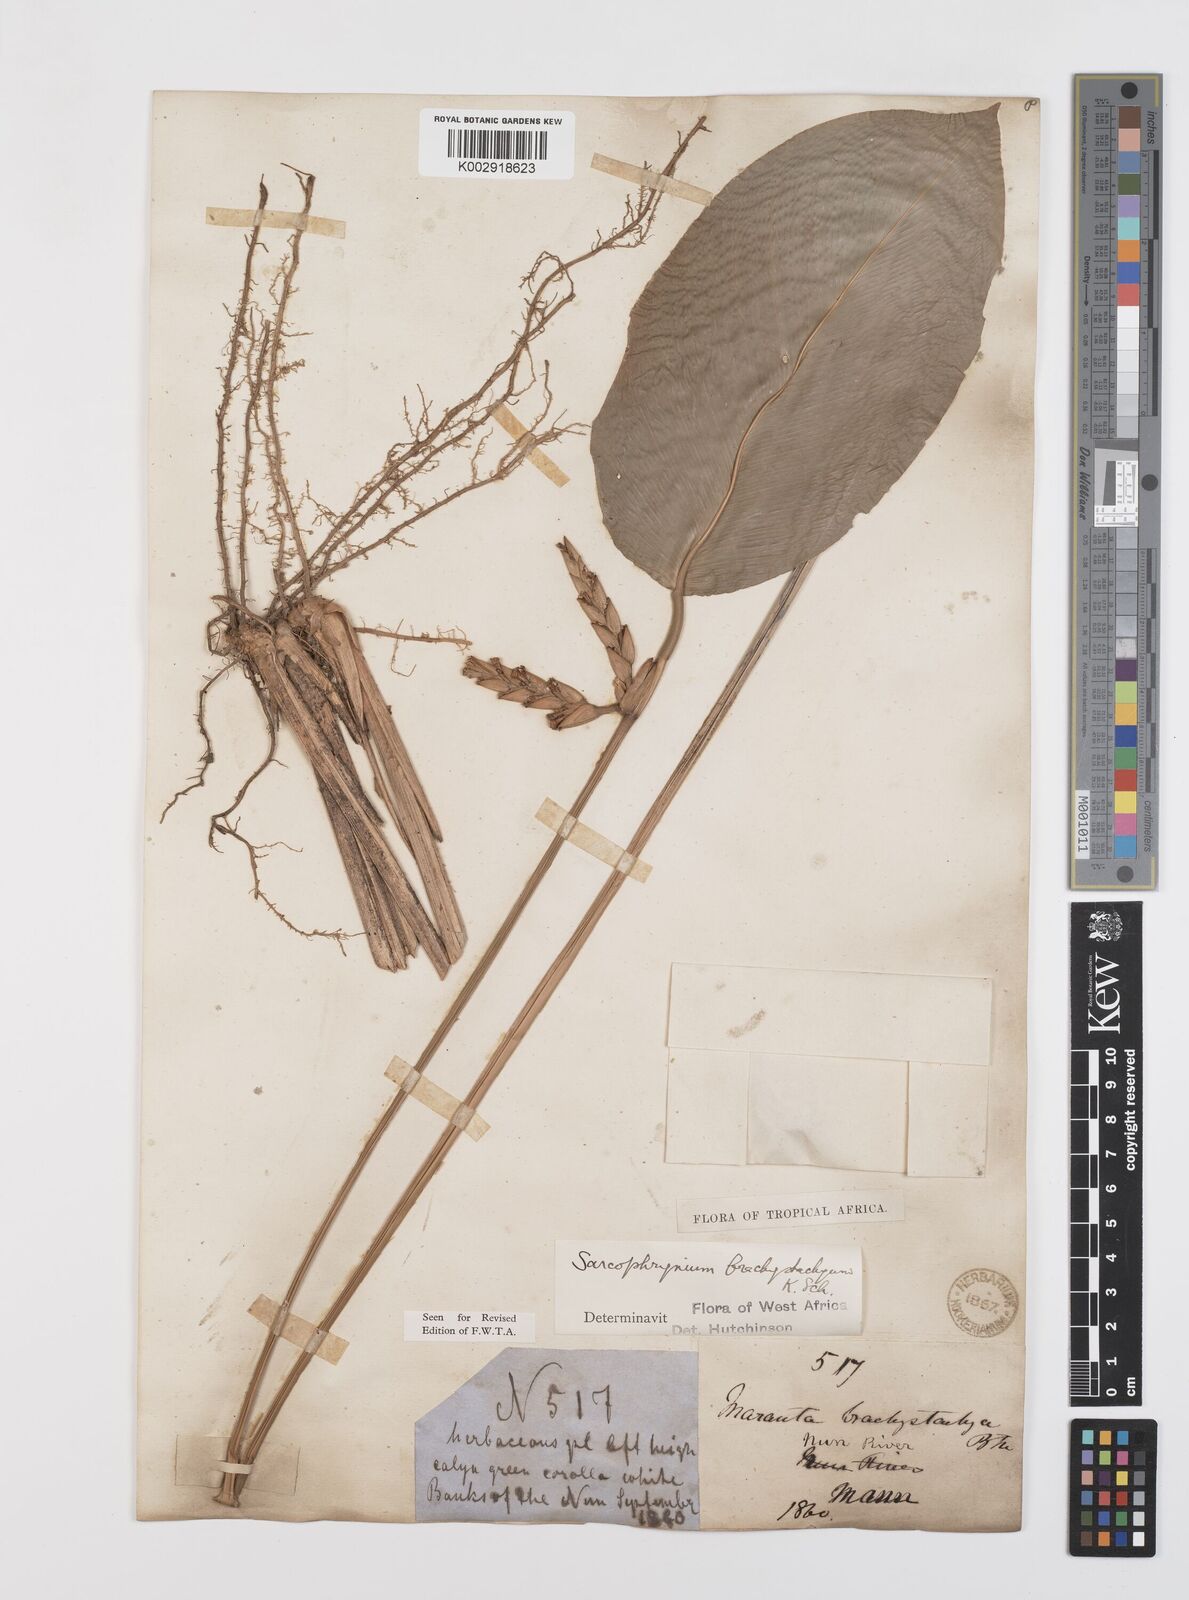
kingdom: Plantae
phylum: Tracheophyta
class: Liliopsida
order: Zingiberales
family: Marantaceae
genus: Sarcophrynium
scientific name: Sarcophrynium brachystachyum
